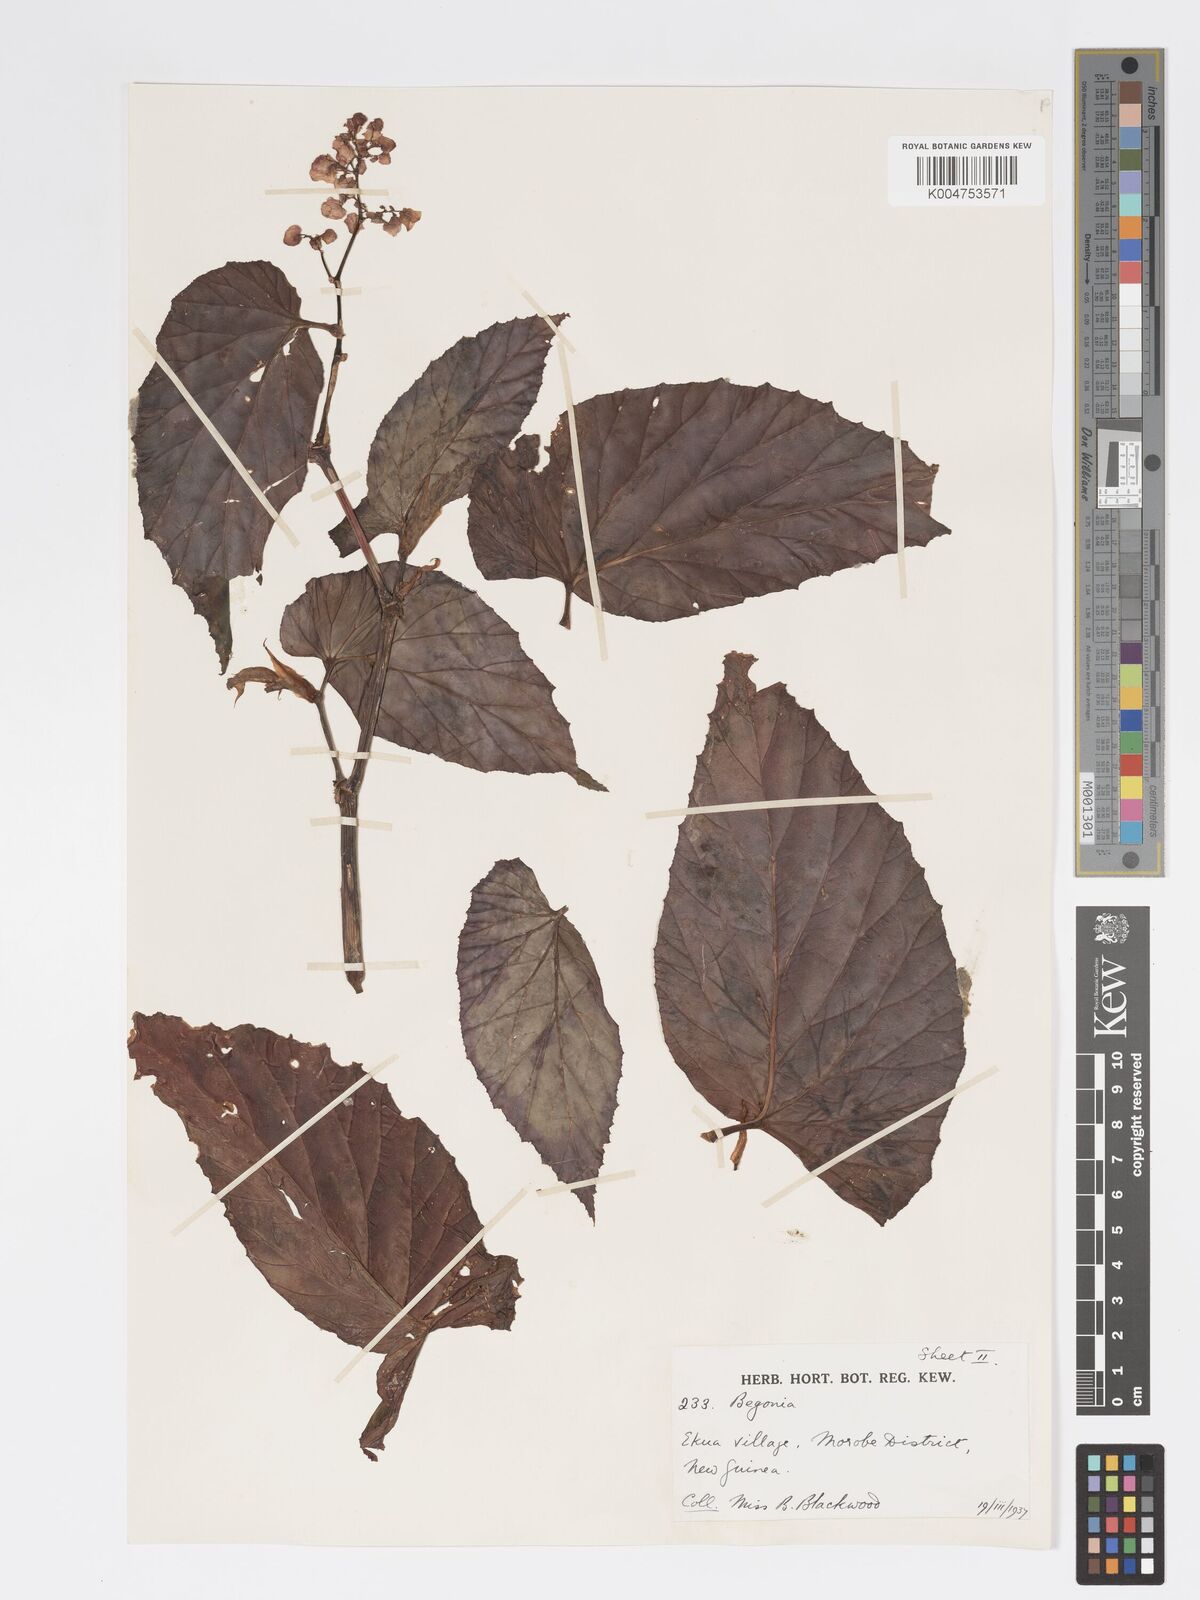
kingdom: Plantae
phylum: Tracheophyta
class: Magnoliopsida
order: Cucurbitales
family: Begoniaceae
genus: Begonia
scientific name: Begonia augustae
